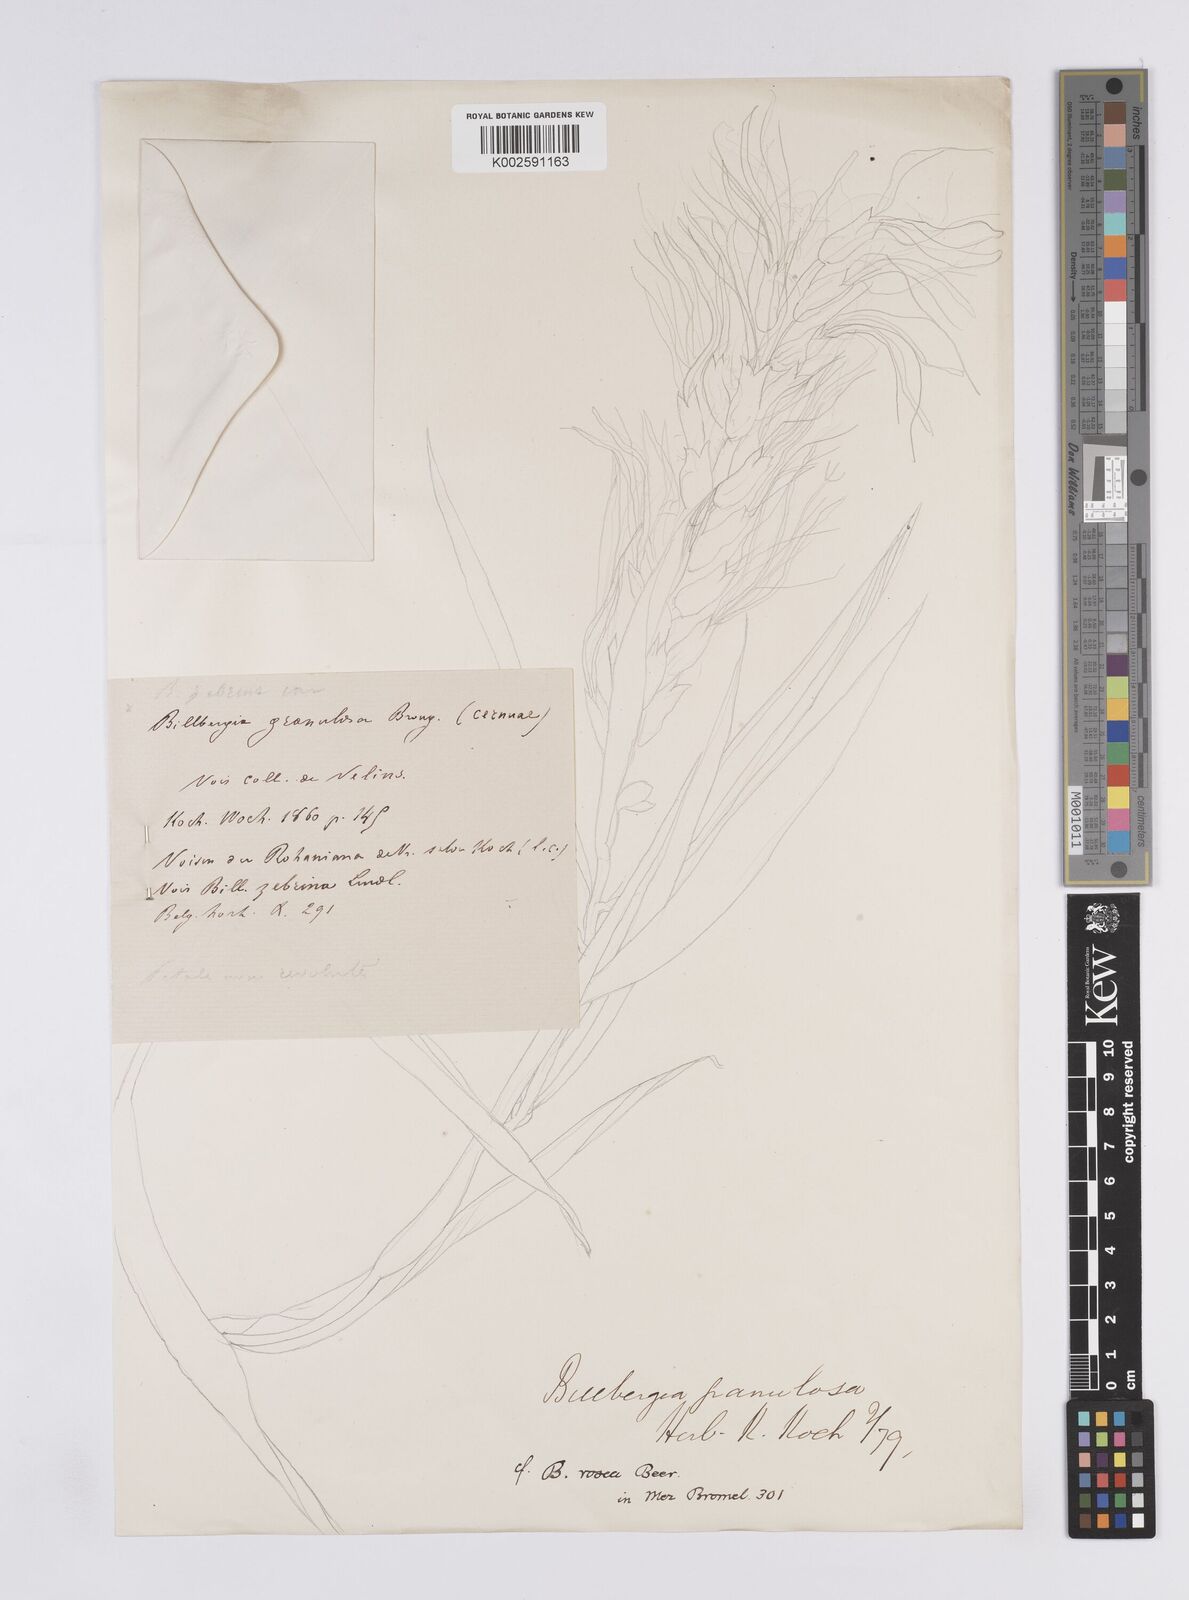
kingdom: Plantae
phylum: Tracheophyta
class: Liliopsida
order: Poales
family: Bromeliaceae
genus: Billbergia
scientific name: Billbergia
